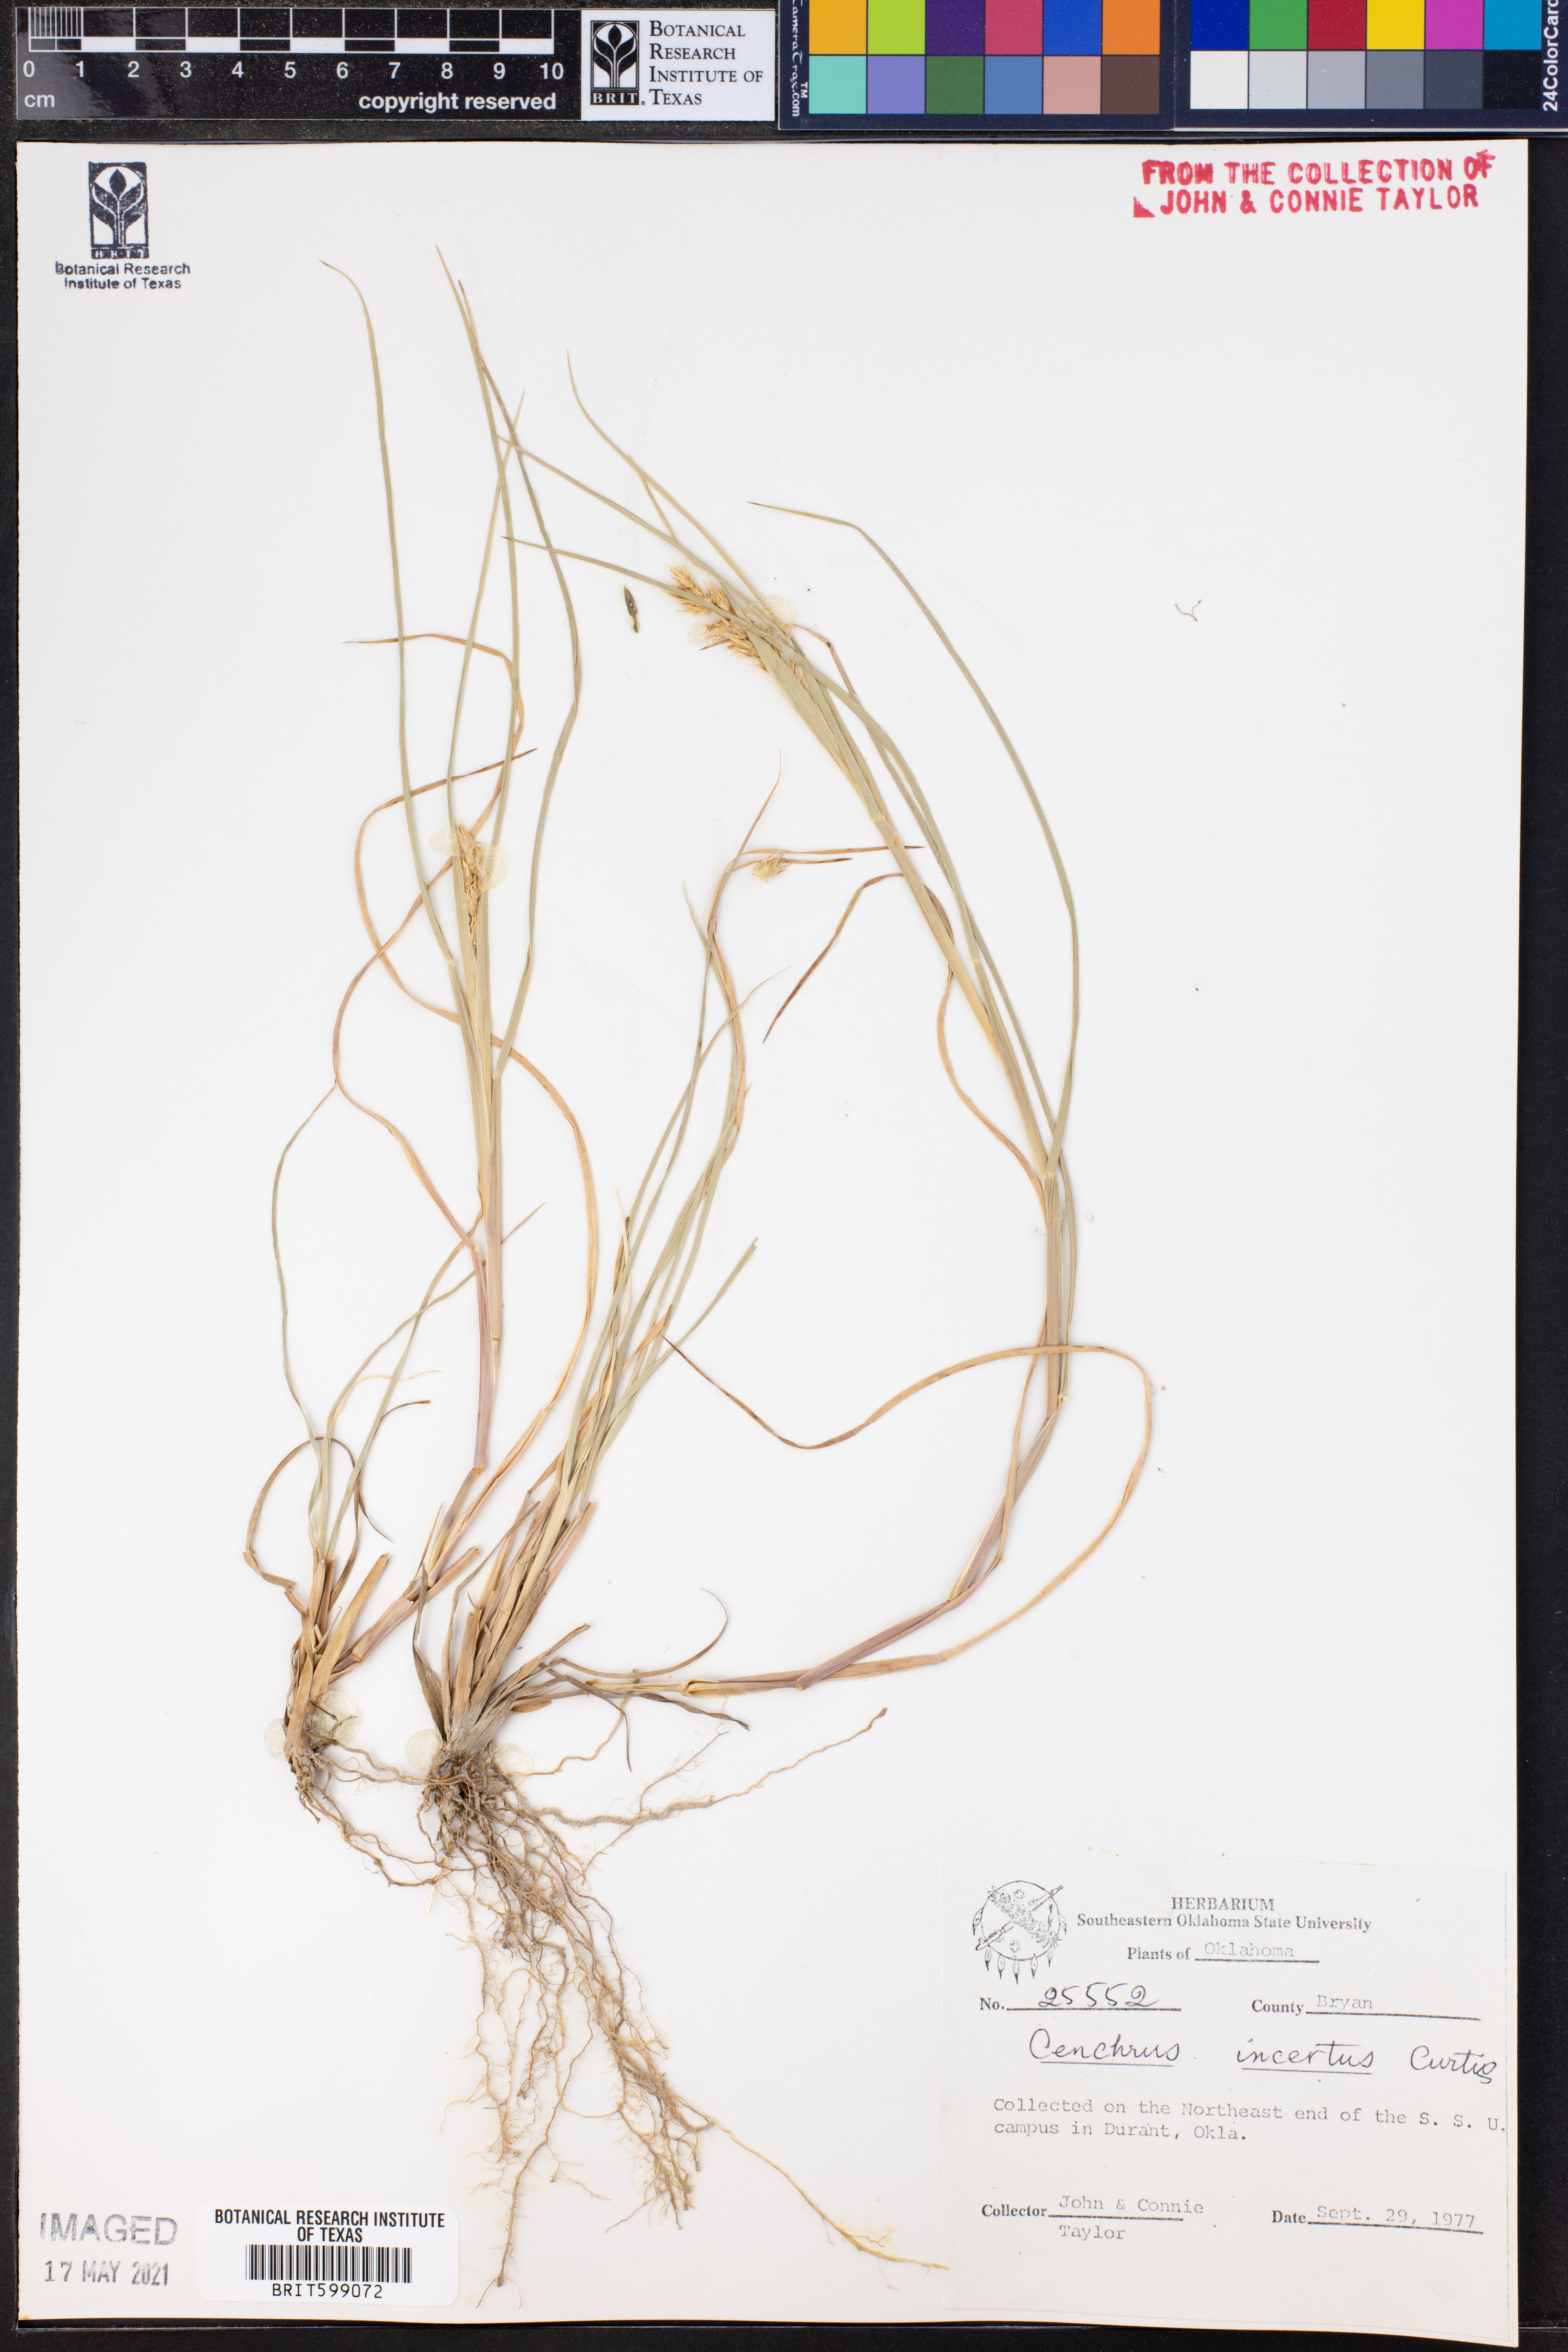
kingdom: Plantae
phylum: Tracheophyta
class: Liliopsida
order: Poales
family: Poaceae
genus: Cenchrus
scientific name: Cenchrus spinifex
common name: Coast sandbur
